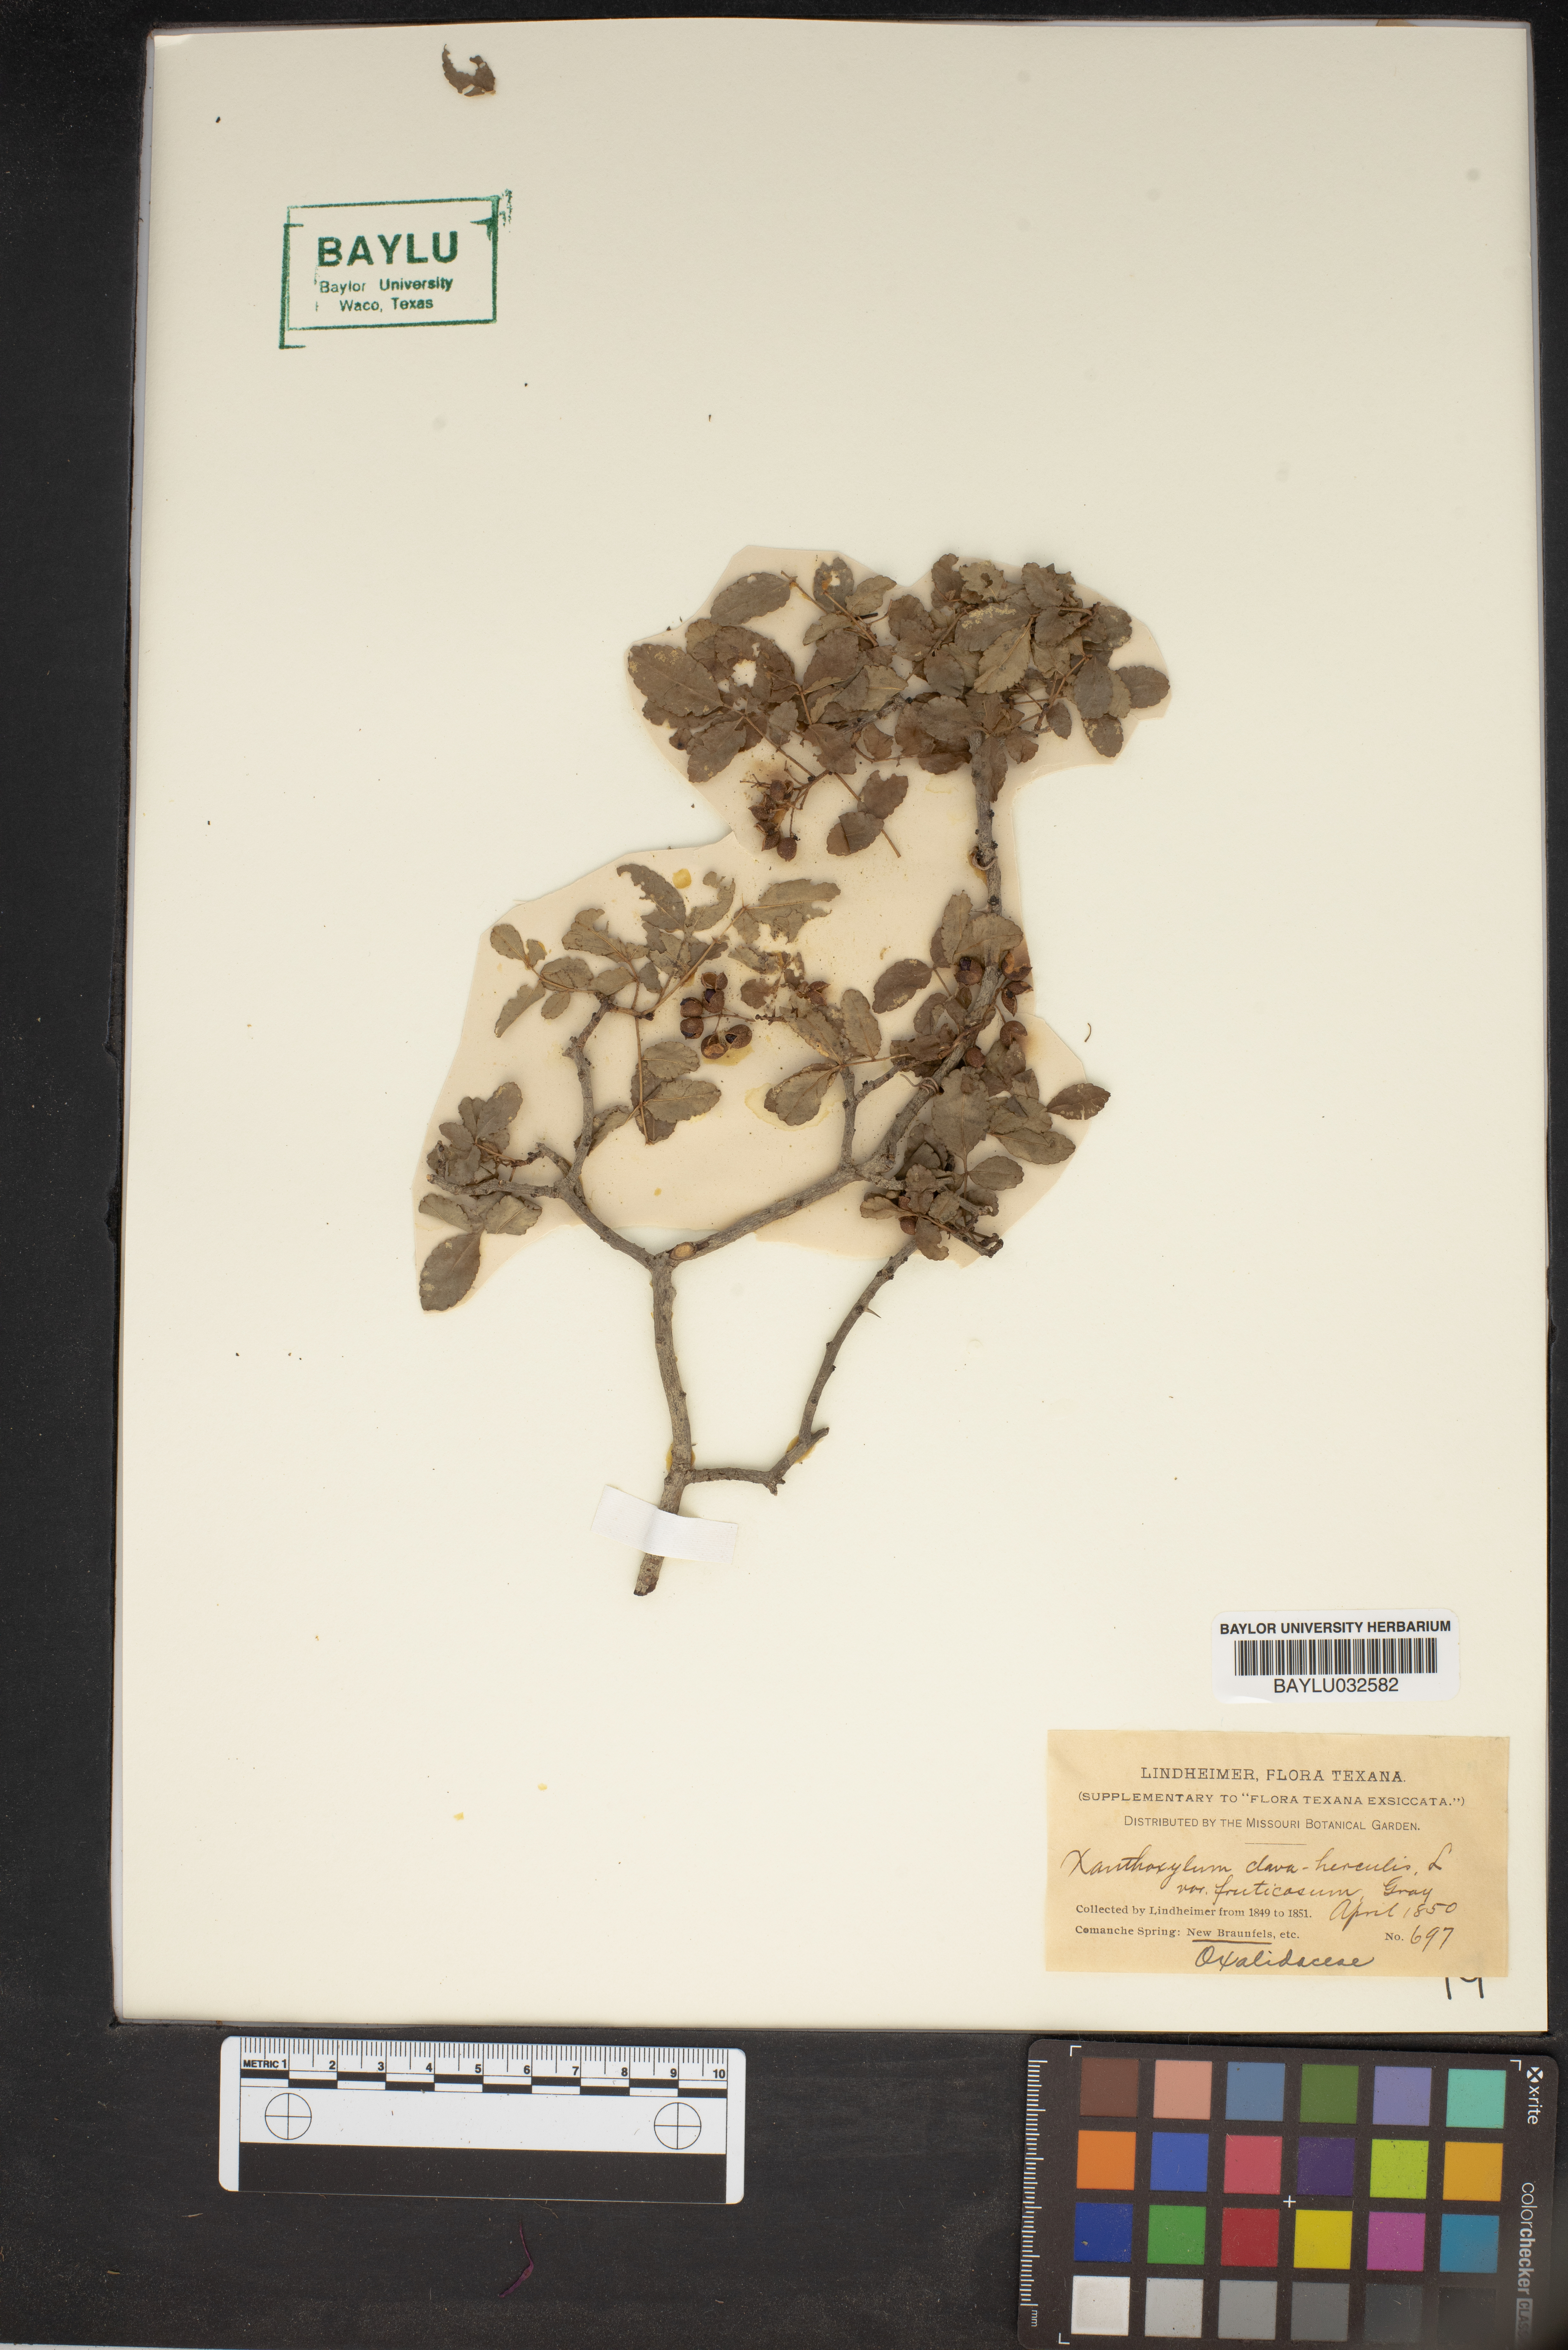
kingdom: Plantae
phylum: Tracheophyta
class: Magnoliopsida
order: Sapindales
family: Rutaceae
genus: Zanthoxylum
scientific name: Zanthoxylum avicennae
